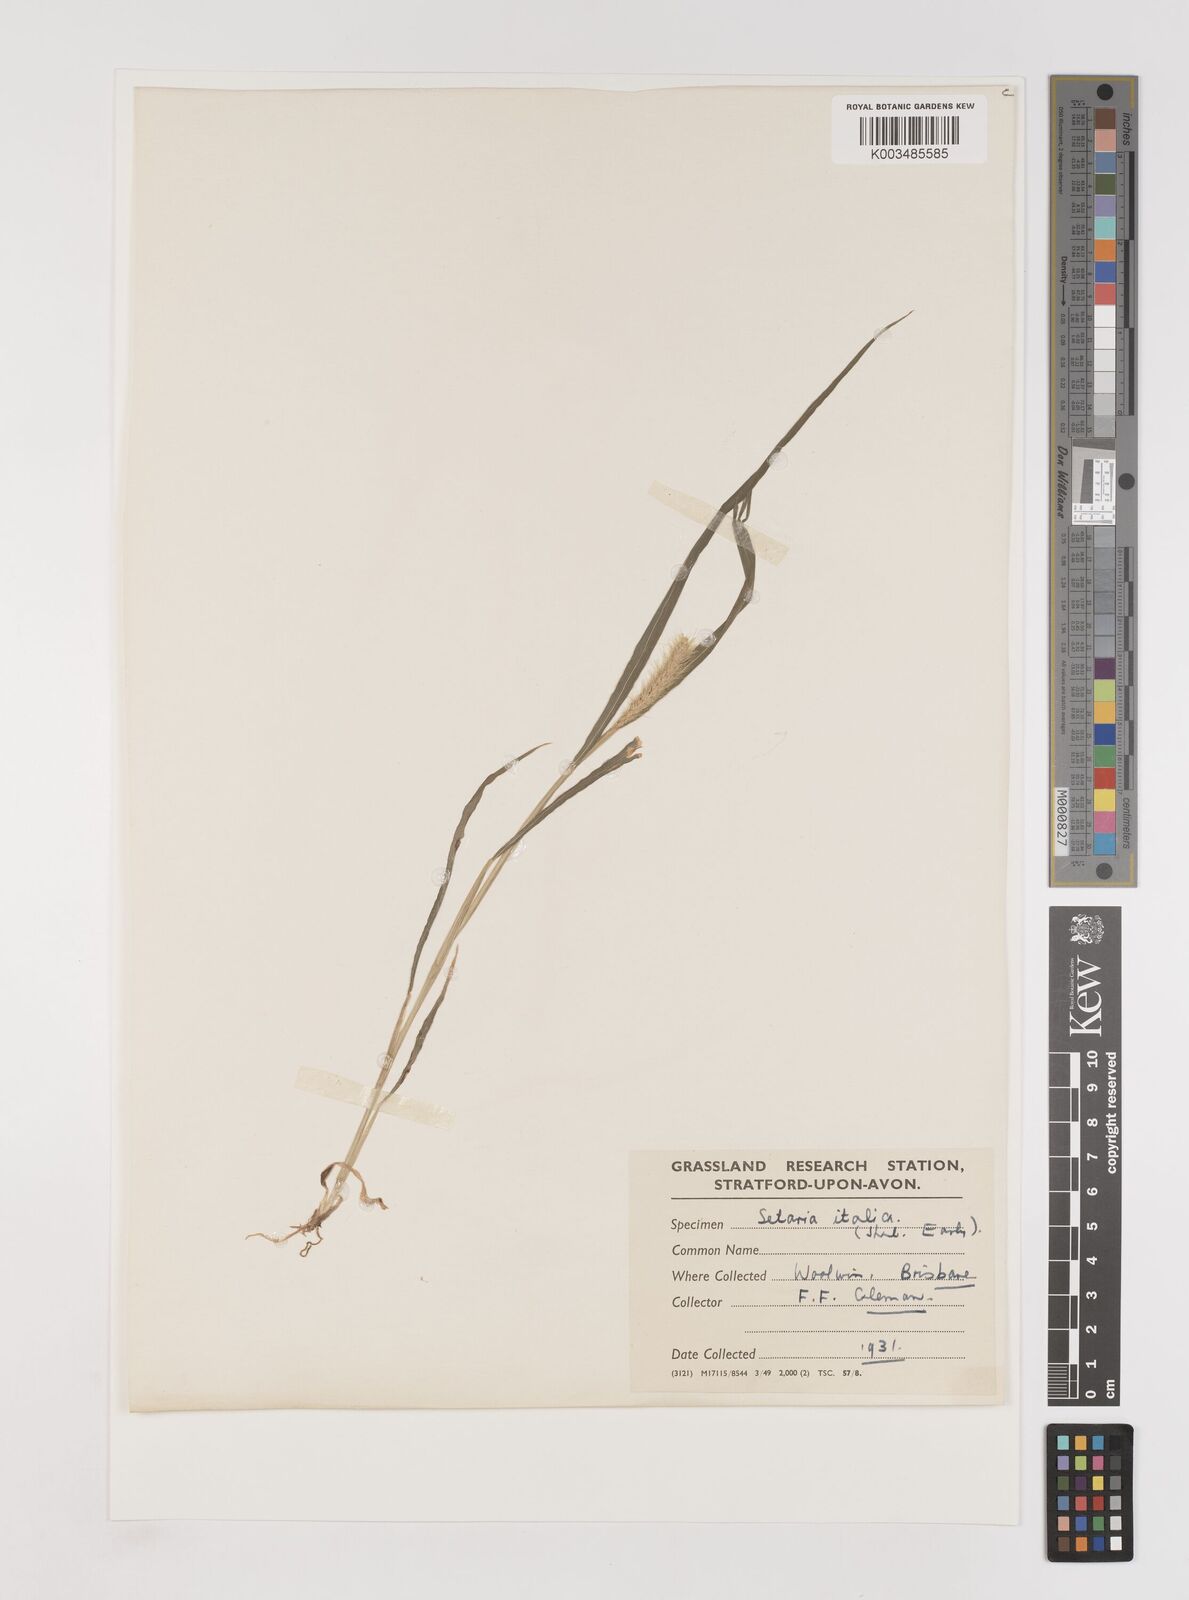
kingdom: Plantae
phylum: Tracheophyta
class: Liliopsida
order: Poales
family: Poaceae
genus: Setaria
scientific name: Setaria
